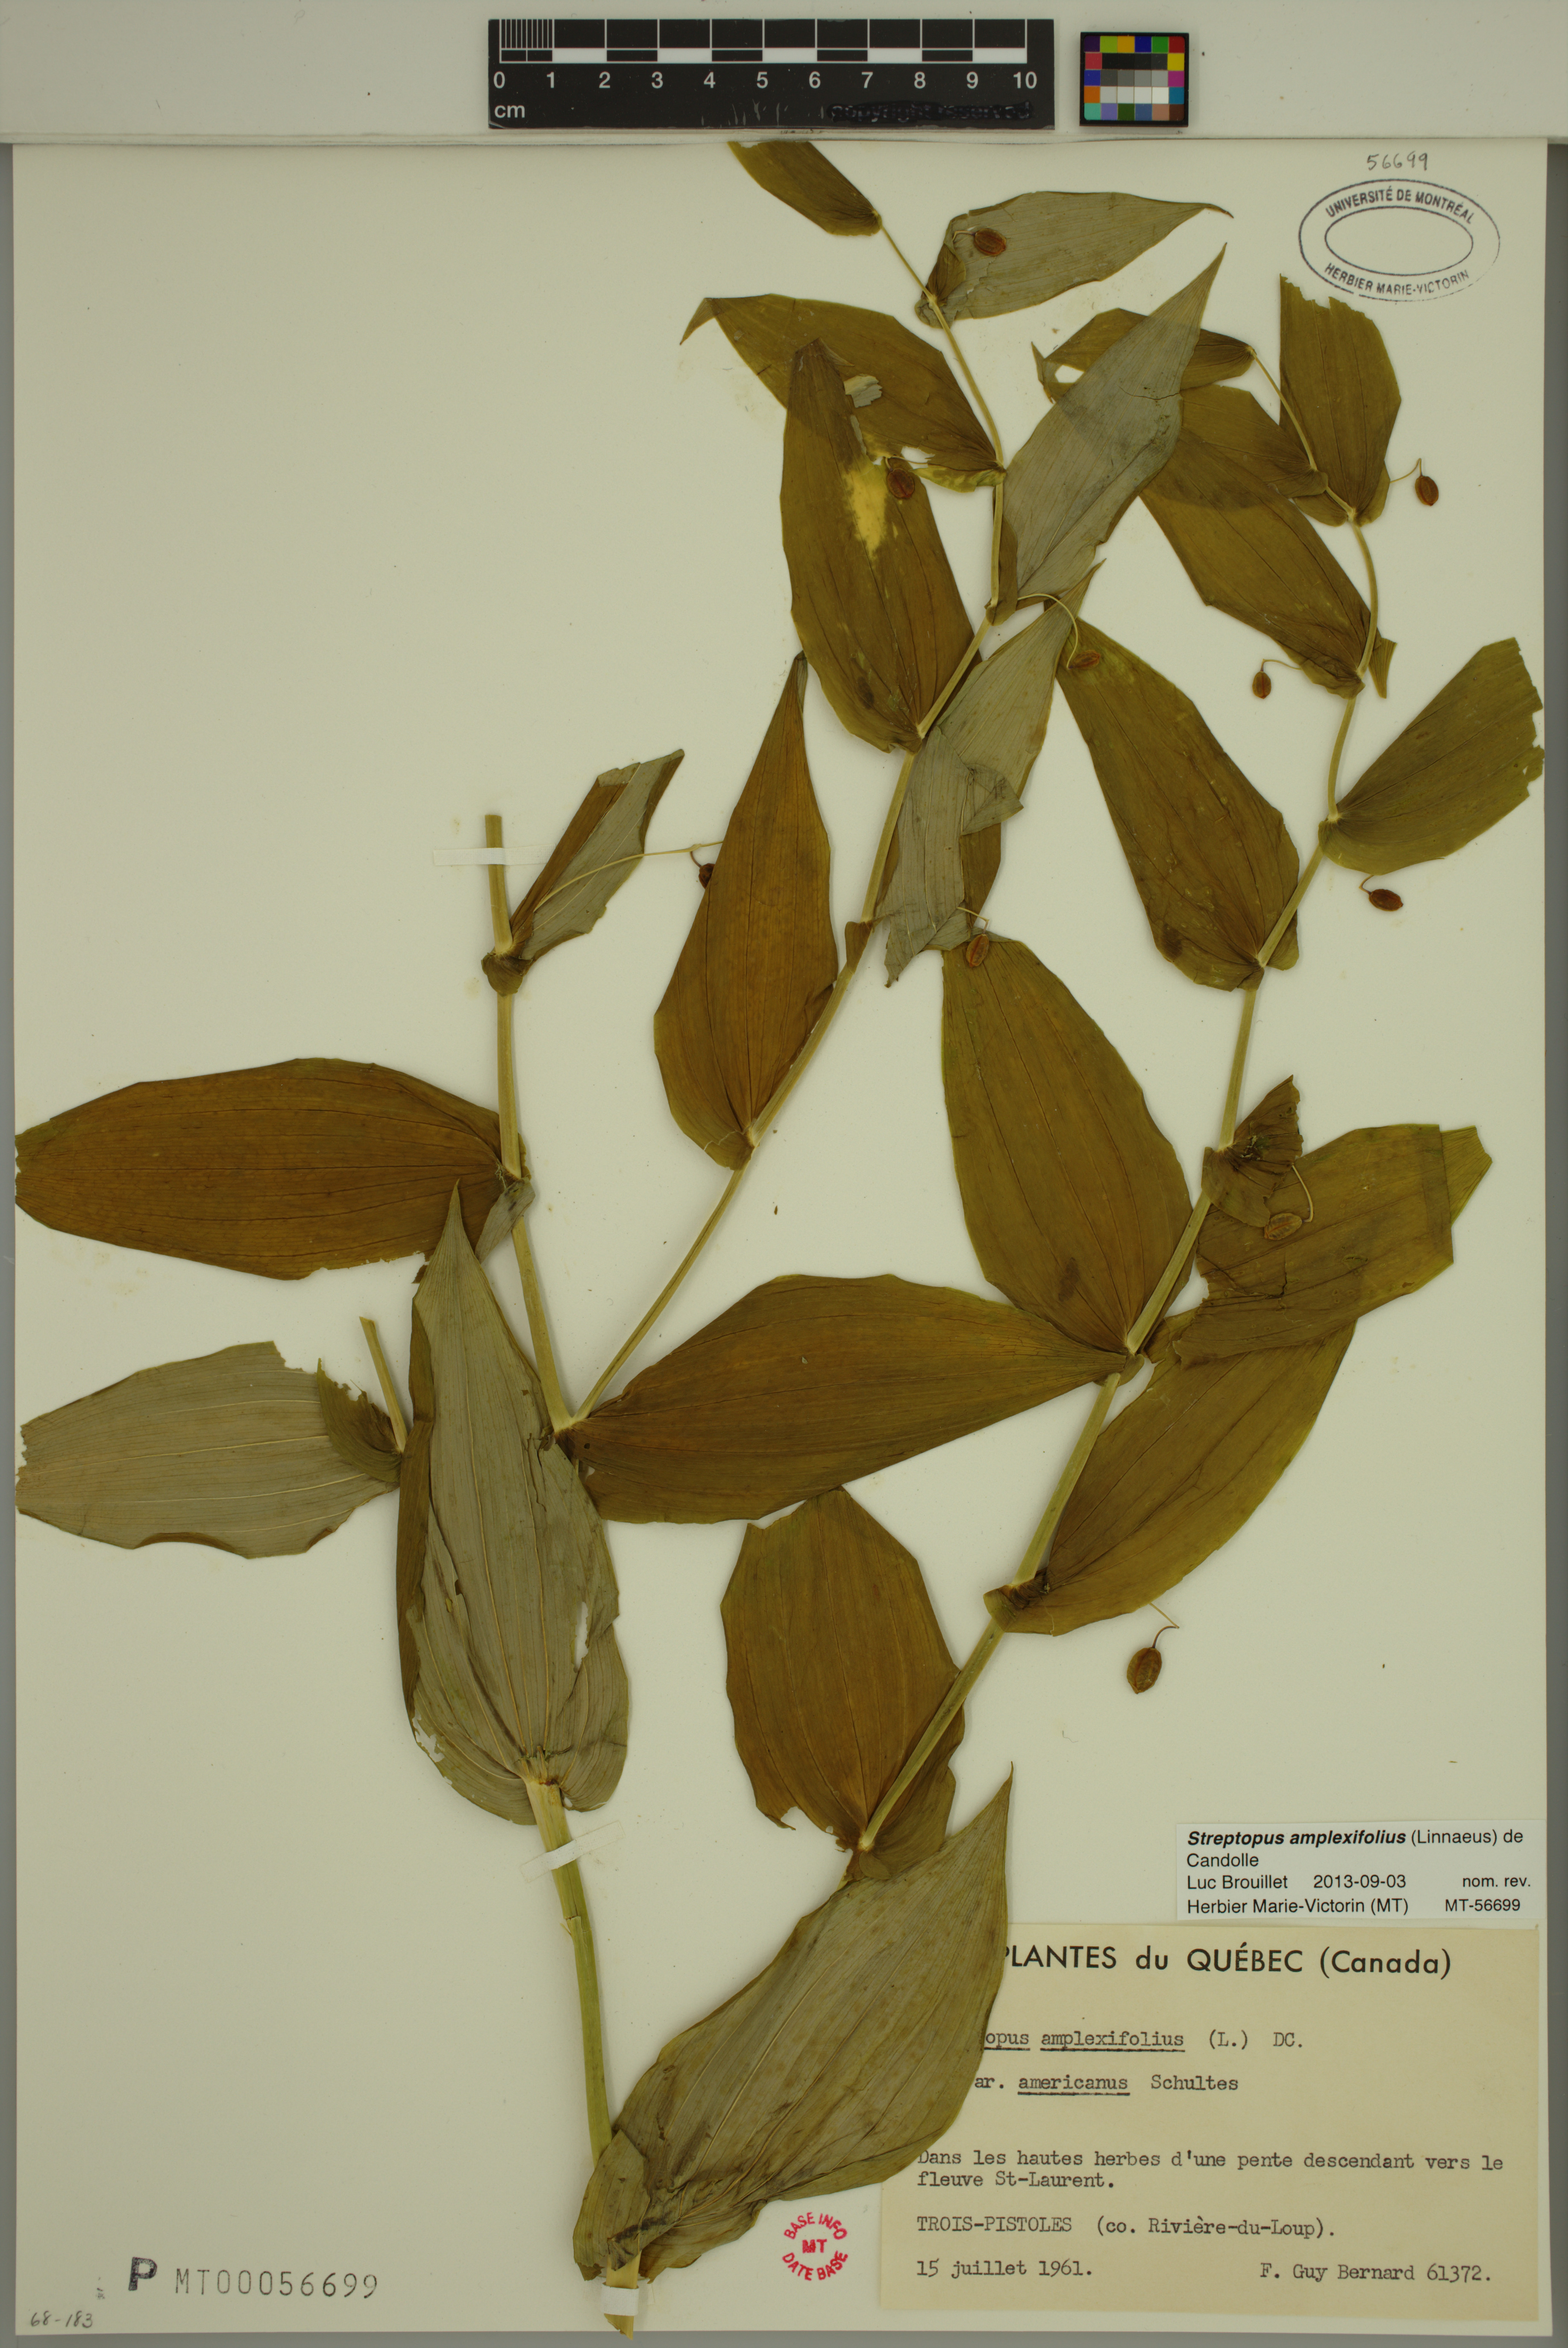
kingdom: Plantae
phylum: Tracheophyta
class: Liliopsida
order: Liliales
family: Liliaceae
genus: Streptopus
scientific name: Streptopus amplexifolius
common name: Clasp twisted stalk
